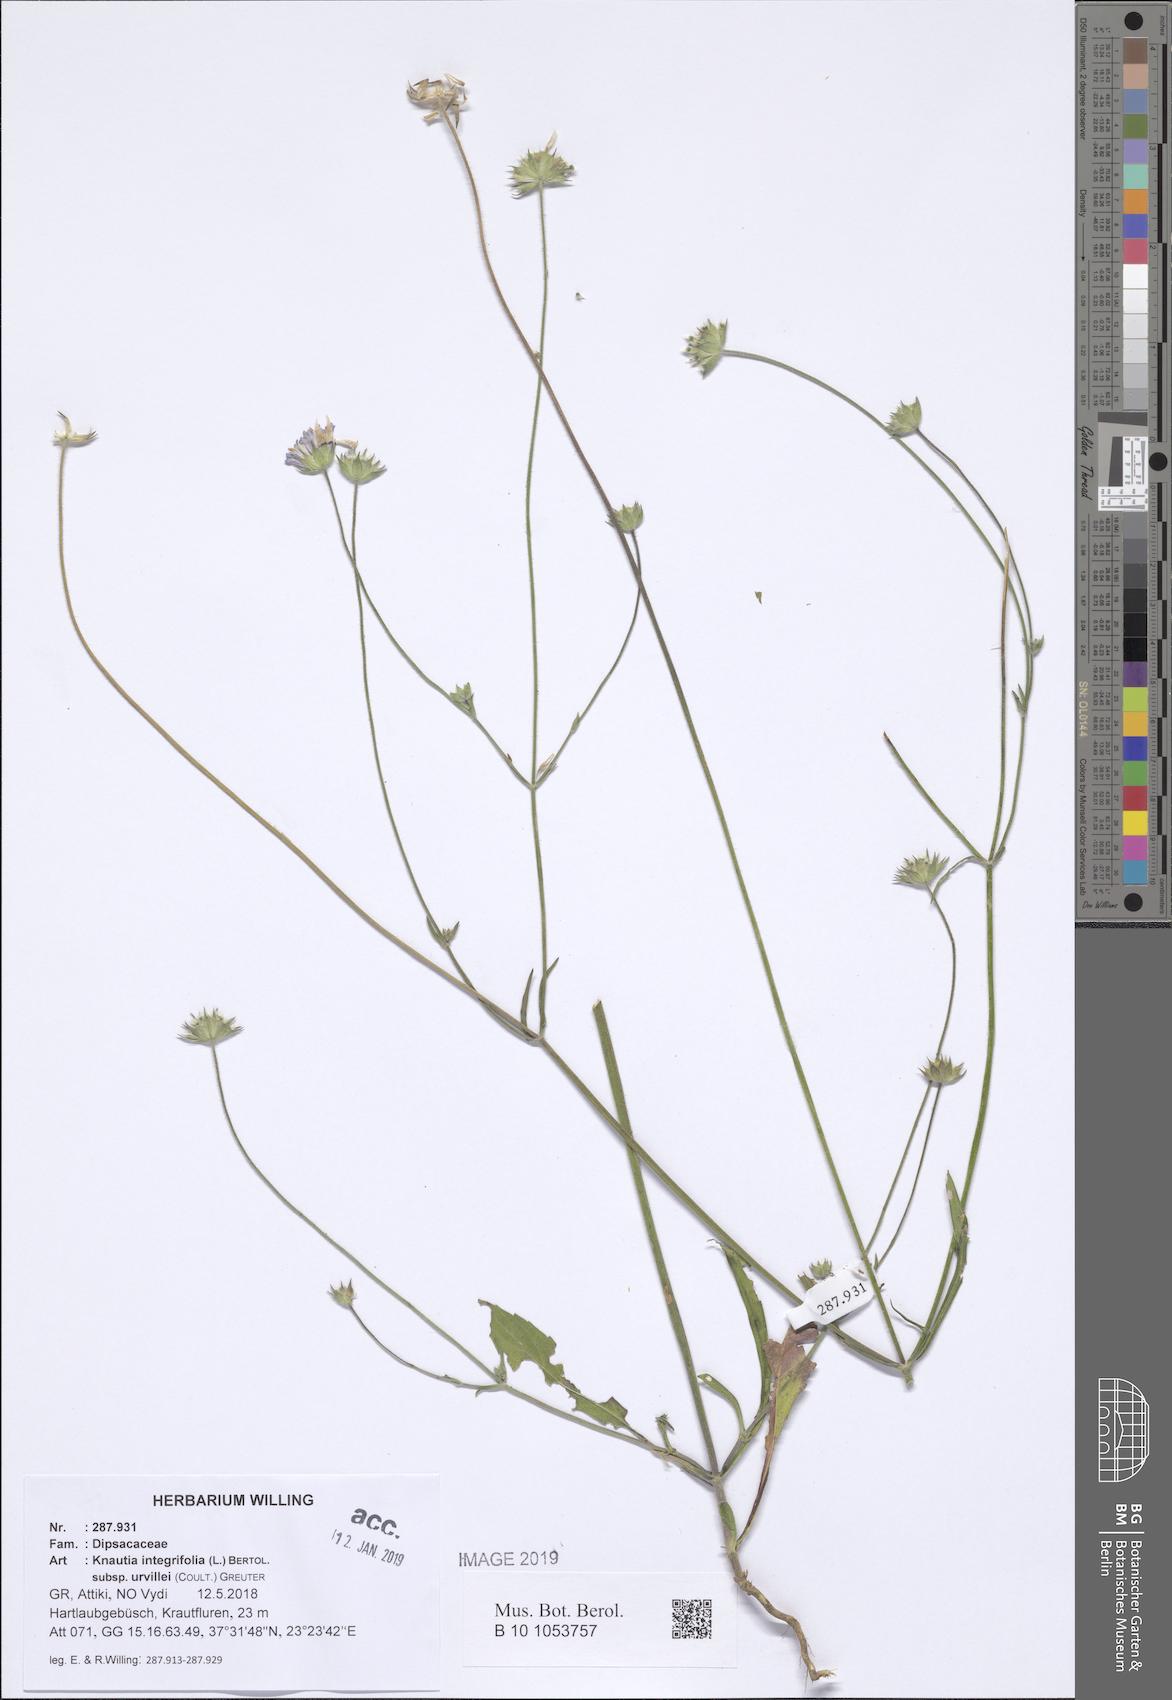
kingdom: Plantae
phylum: Tracheophyta
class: Magnoliopsida
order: Dipsacales
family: Caprifoliaceae
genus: Knautia
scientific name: Knautia integrifolia
